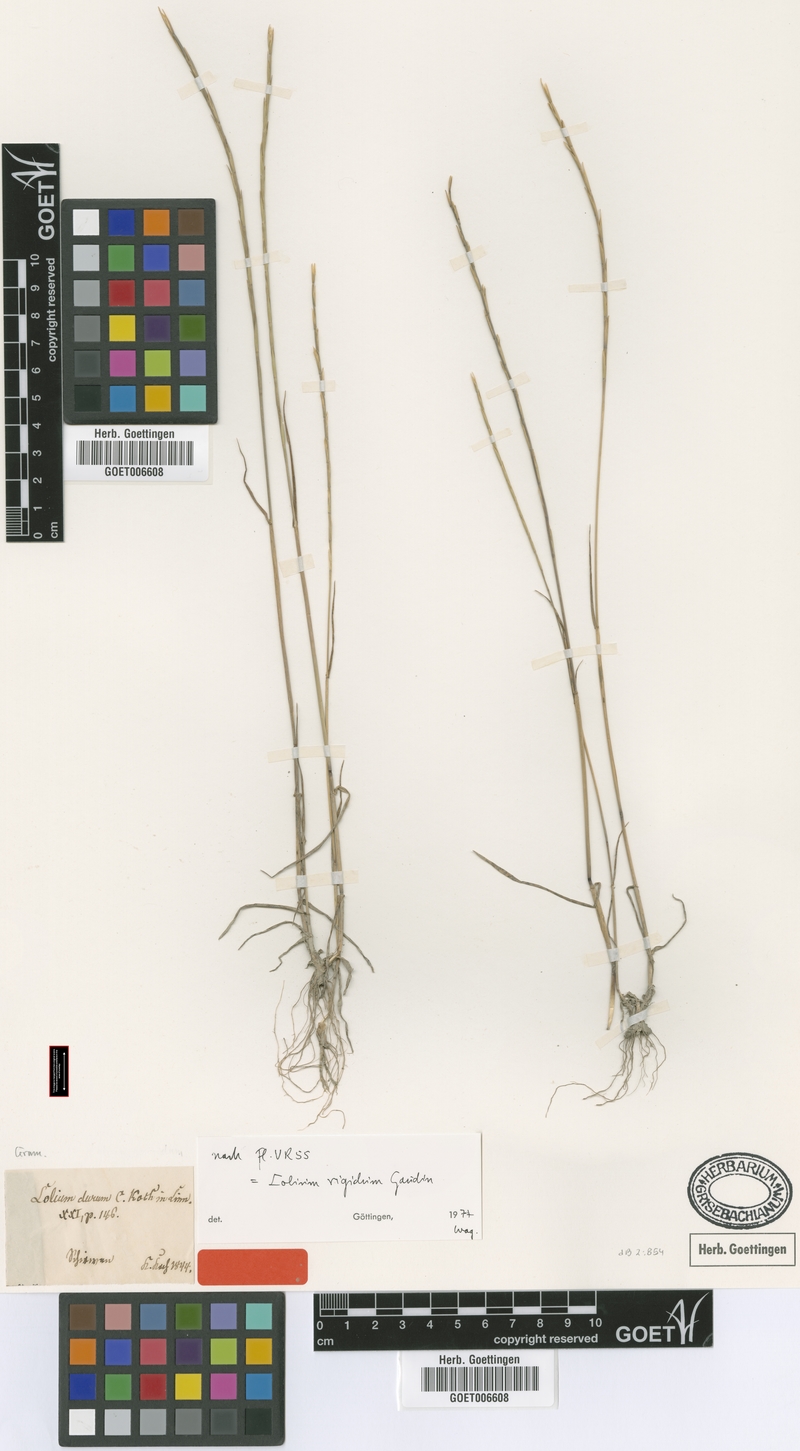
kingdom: Plantae
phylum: Tracheophyta
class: Liliopsida
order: Poales
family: Poaceae
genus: Lolium
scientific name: Lolium rigidum
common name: Wimmera ryegrass
